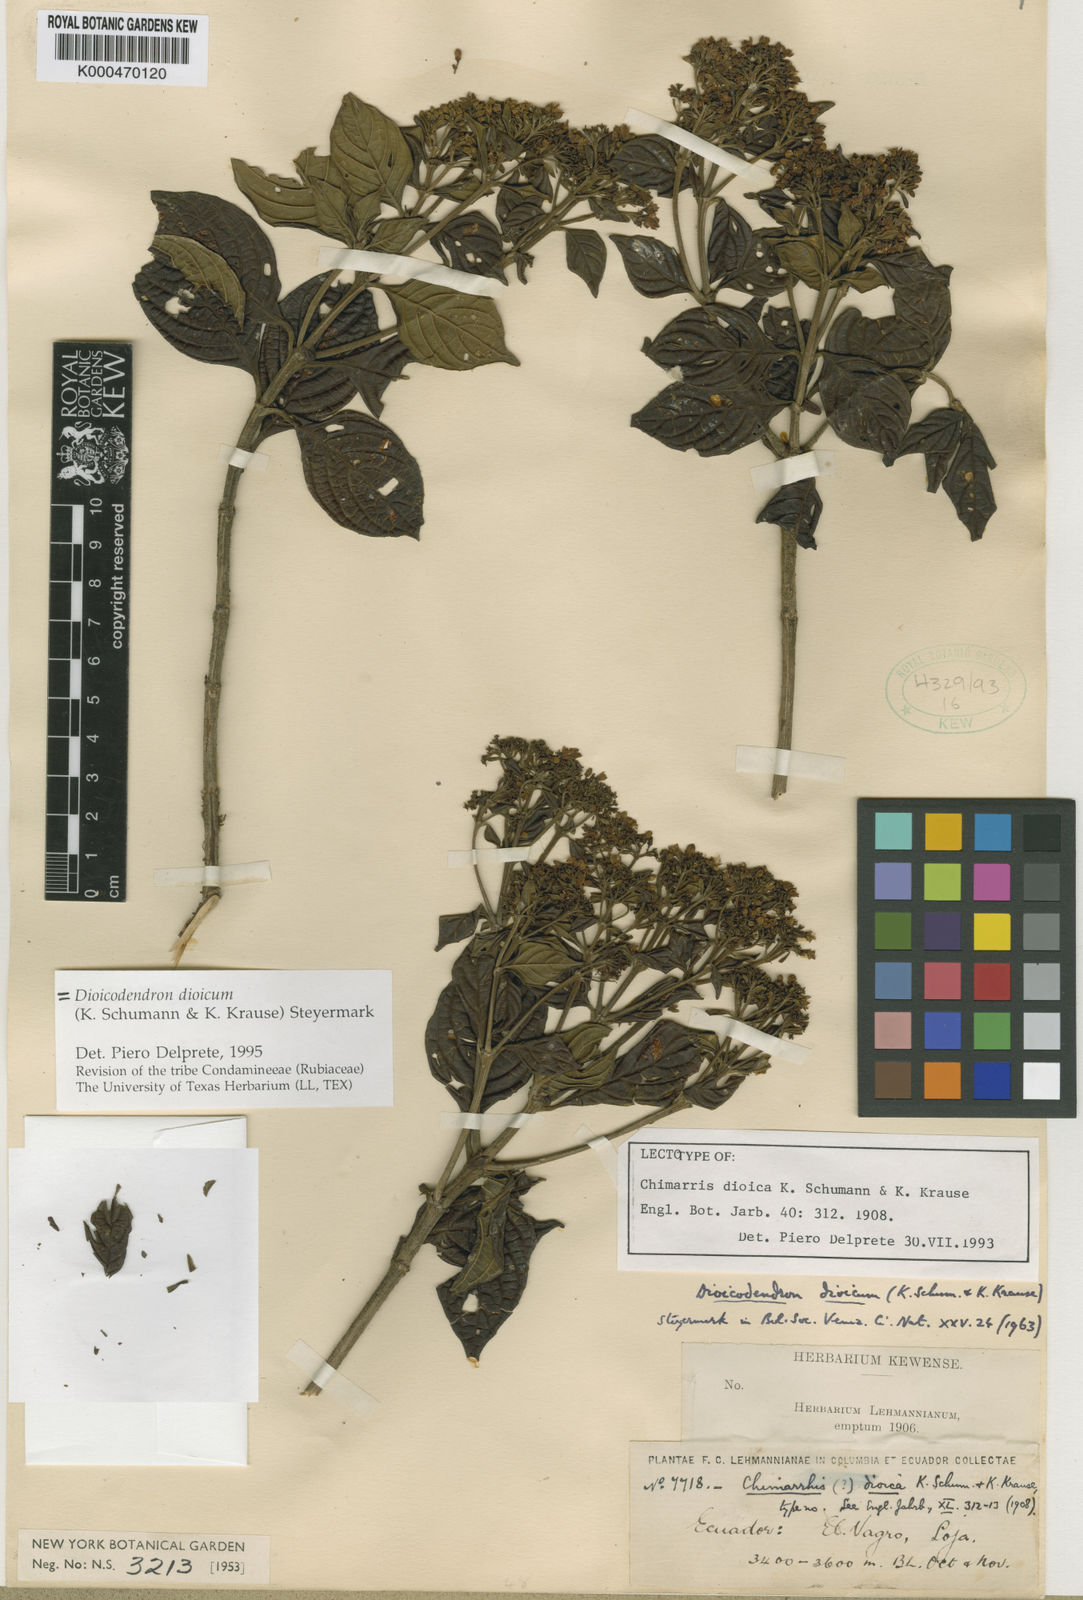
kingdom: Plantae
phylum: Tracheophyta
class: Magnoliopsida
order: Gentianales
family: Rubiaceae
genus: Dioicodendron
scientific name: Dioicodendron dioicum
